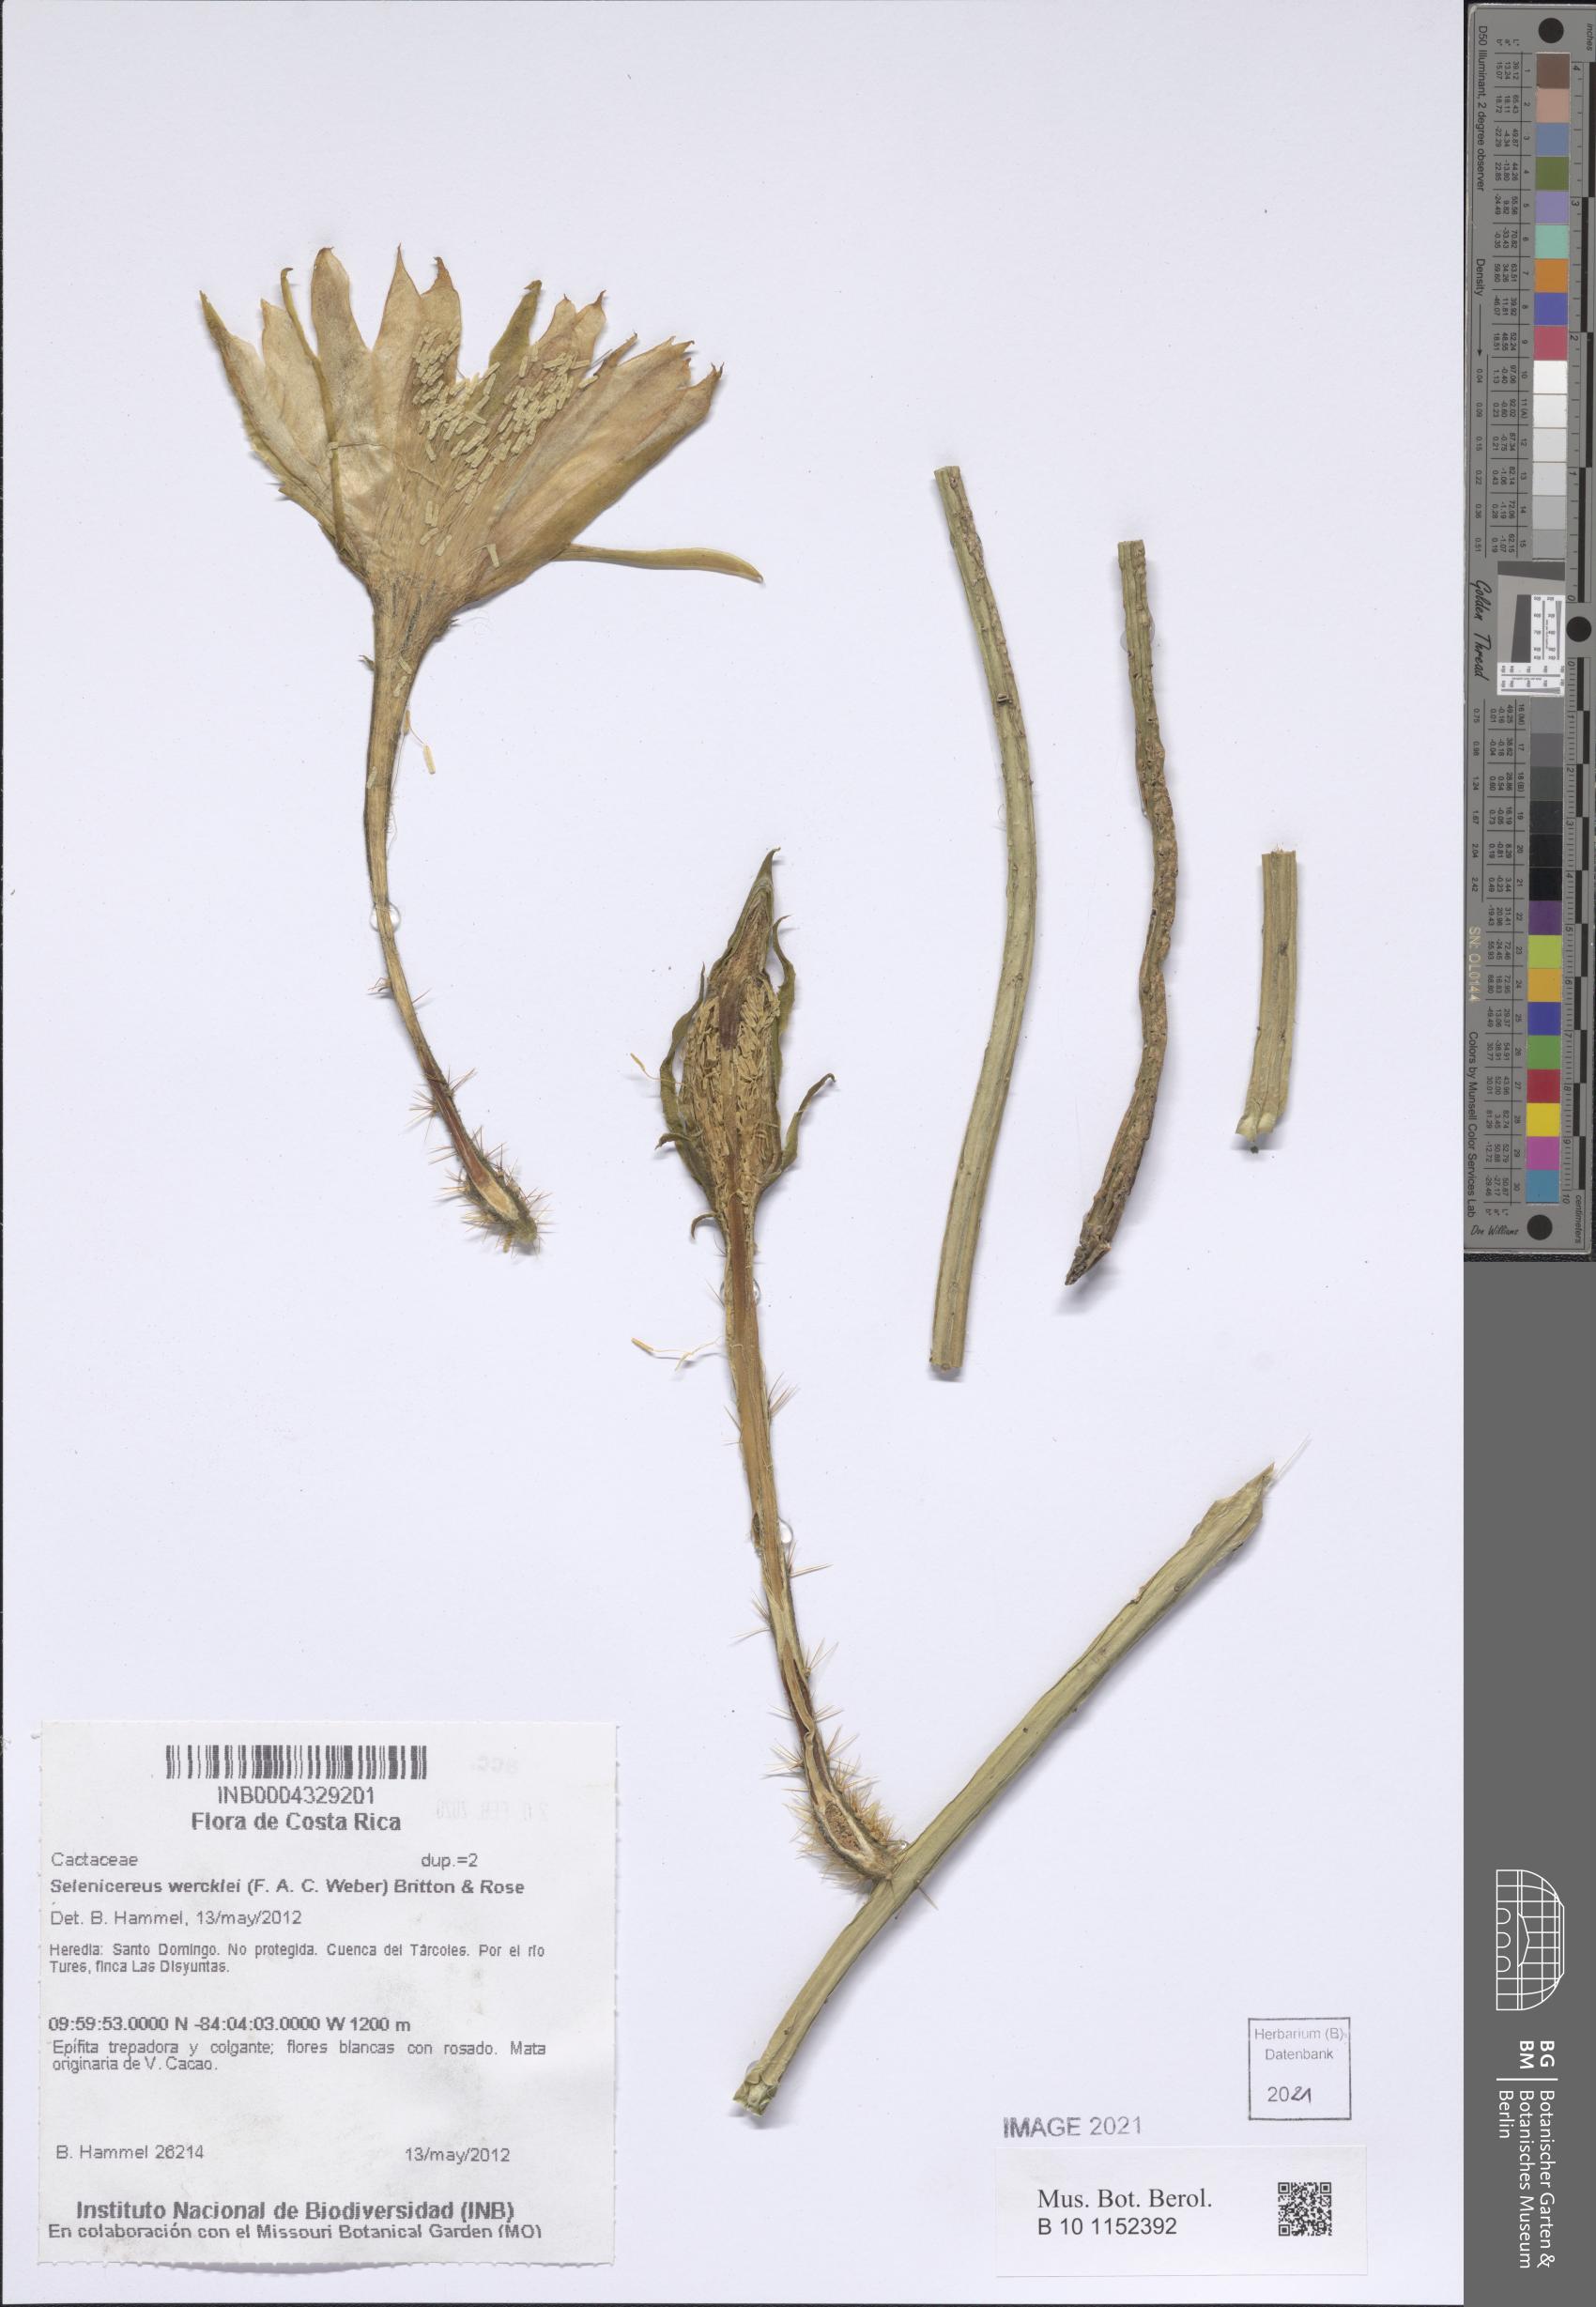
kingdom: Plantae
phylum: Tracheophyta
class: Magnoliopsida
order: Caryophyllales
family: Cactaceae
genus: Selenicereus
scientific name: Selenicereus inermis
